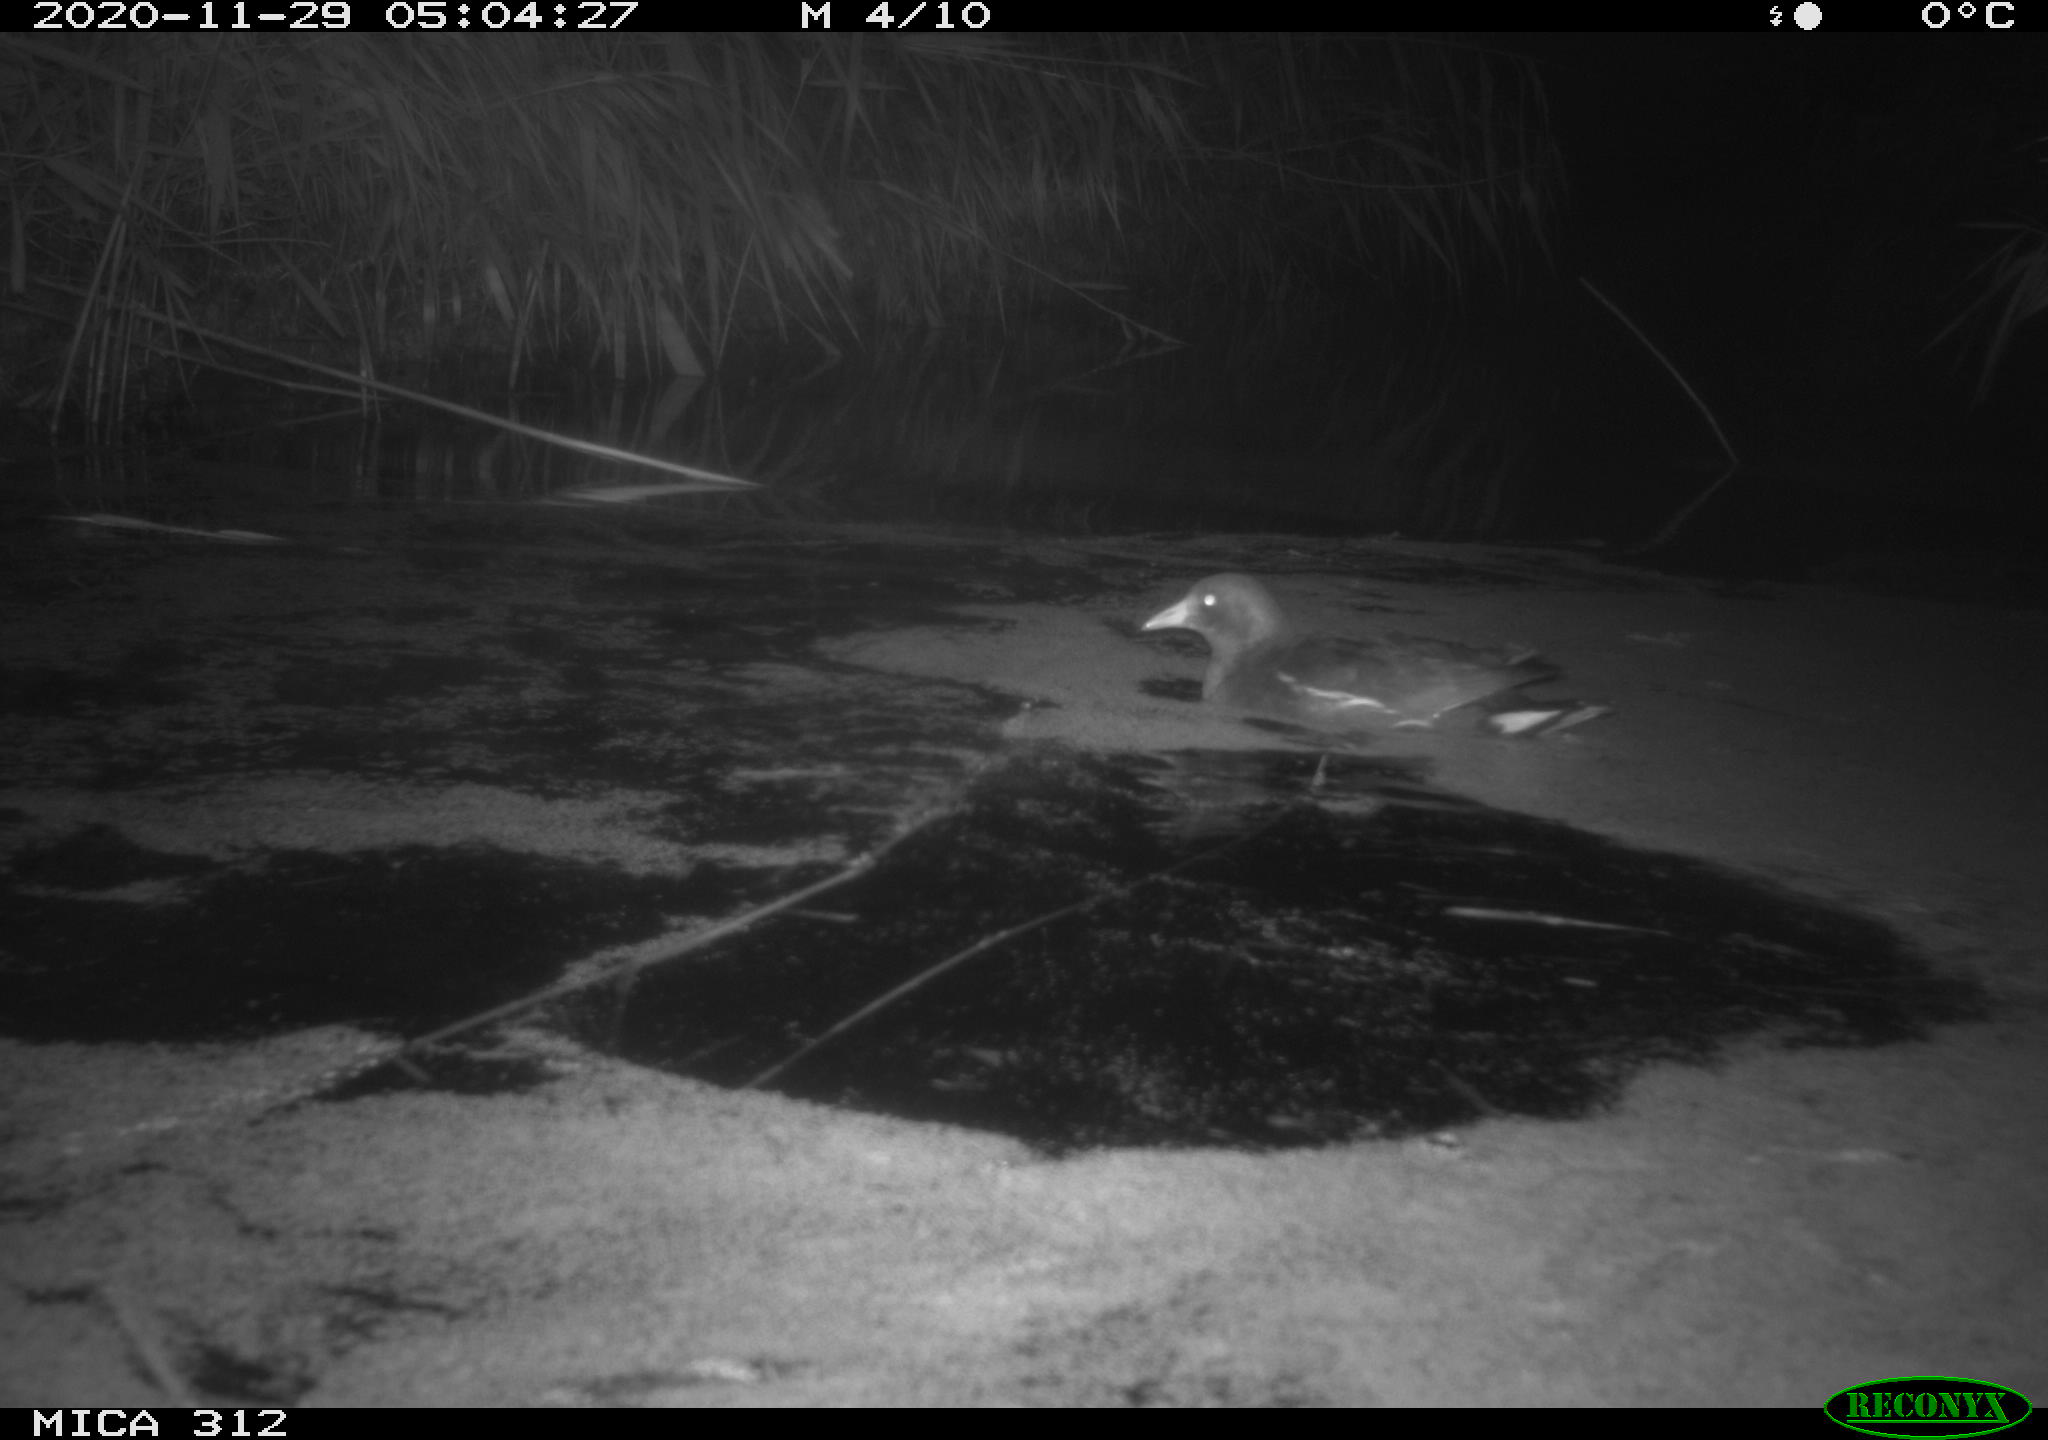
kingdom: Animalia
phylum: Chordata
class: Mammalia
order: Rodentia
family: Muridae
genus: Rattus
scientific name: Rattus norvegicus
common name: Brown rat
